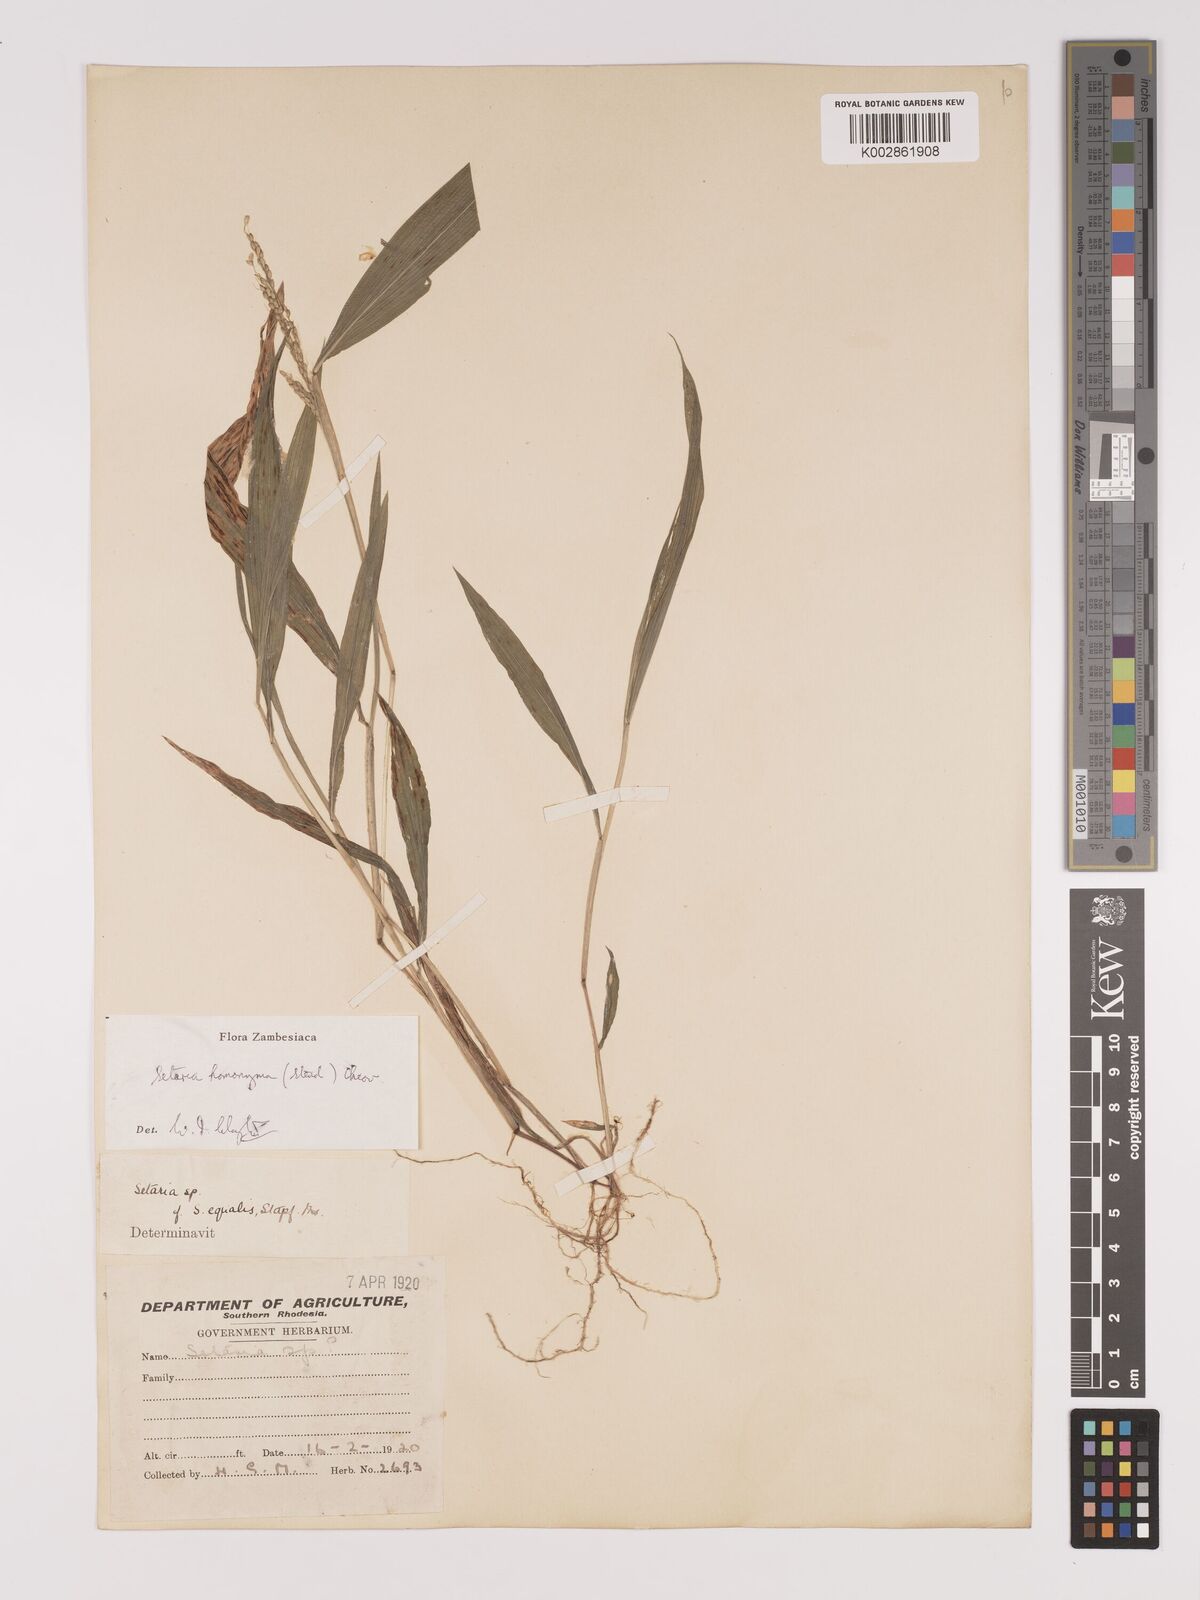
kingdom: Plantae
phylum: Tracheophyta
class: Liliopsida
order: Poales
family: Poaceae
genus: Setaria
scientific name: Setaria homonyma
